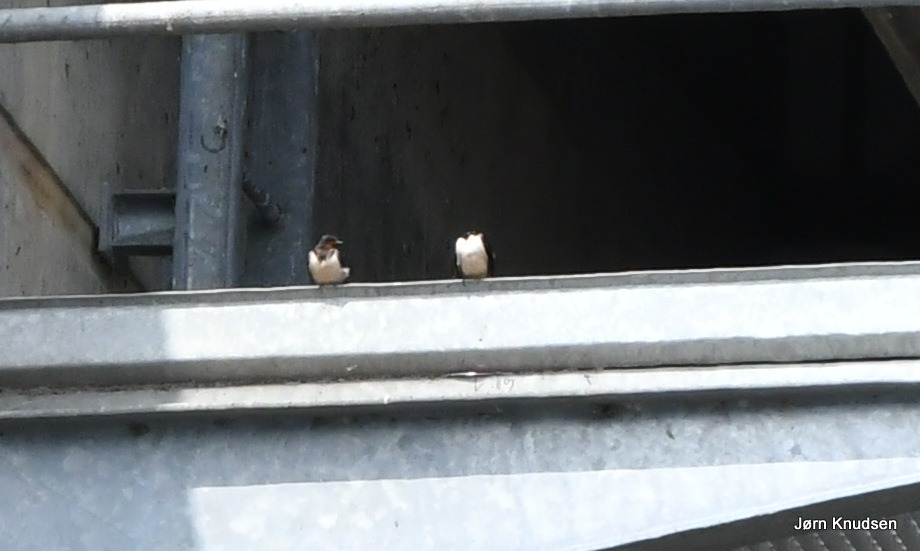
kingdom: Animalia
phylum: Chordata
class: Aves
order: Passeriformes
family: Hirundinidae
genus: Hirundo
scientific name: Hirundo rustica
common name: Landsvale
